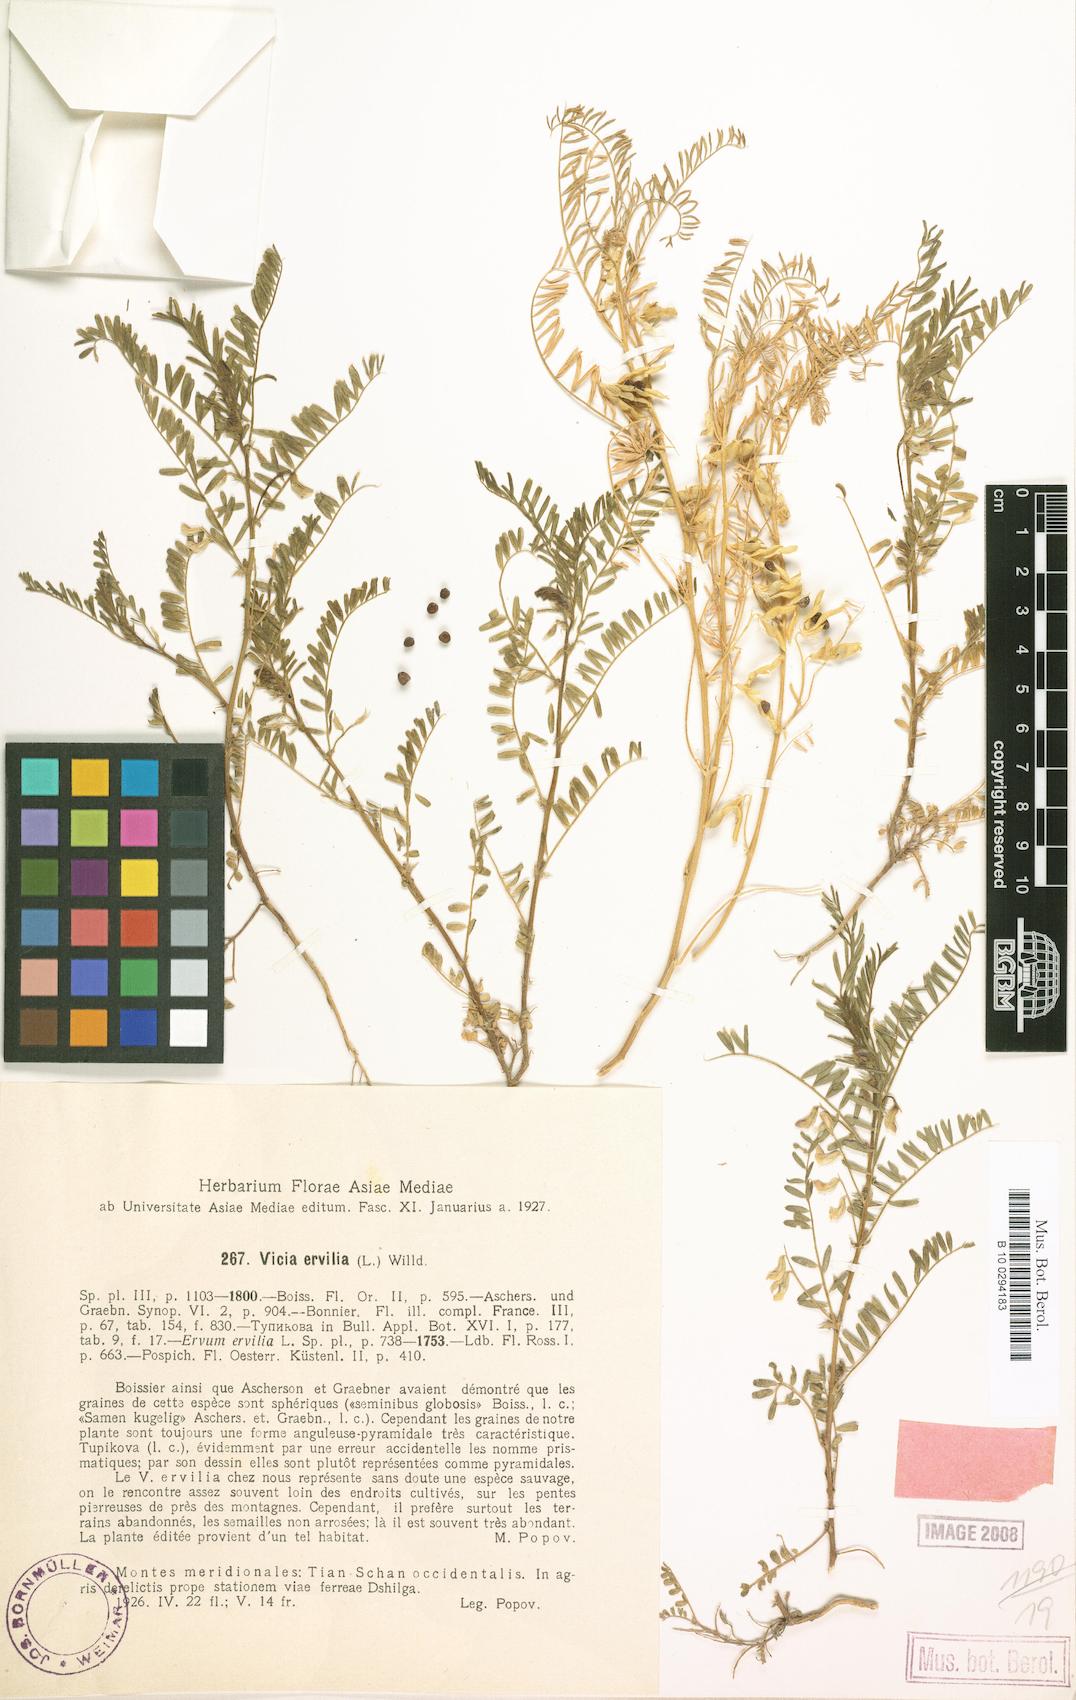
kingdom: Plantae
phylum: Tracheophyta
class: Magnoliopsida
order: Fabales
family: Fabaceae
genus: Vicia
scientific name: Vicia ervilia
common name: Bitter vetch
